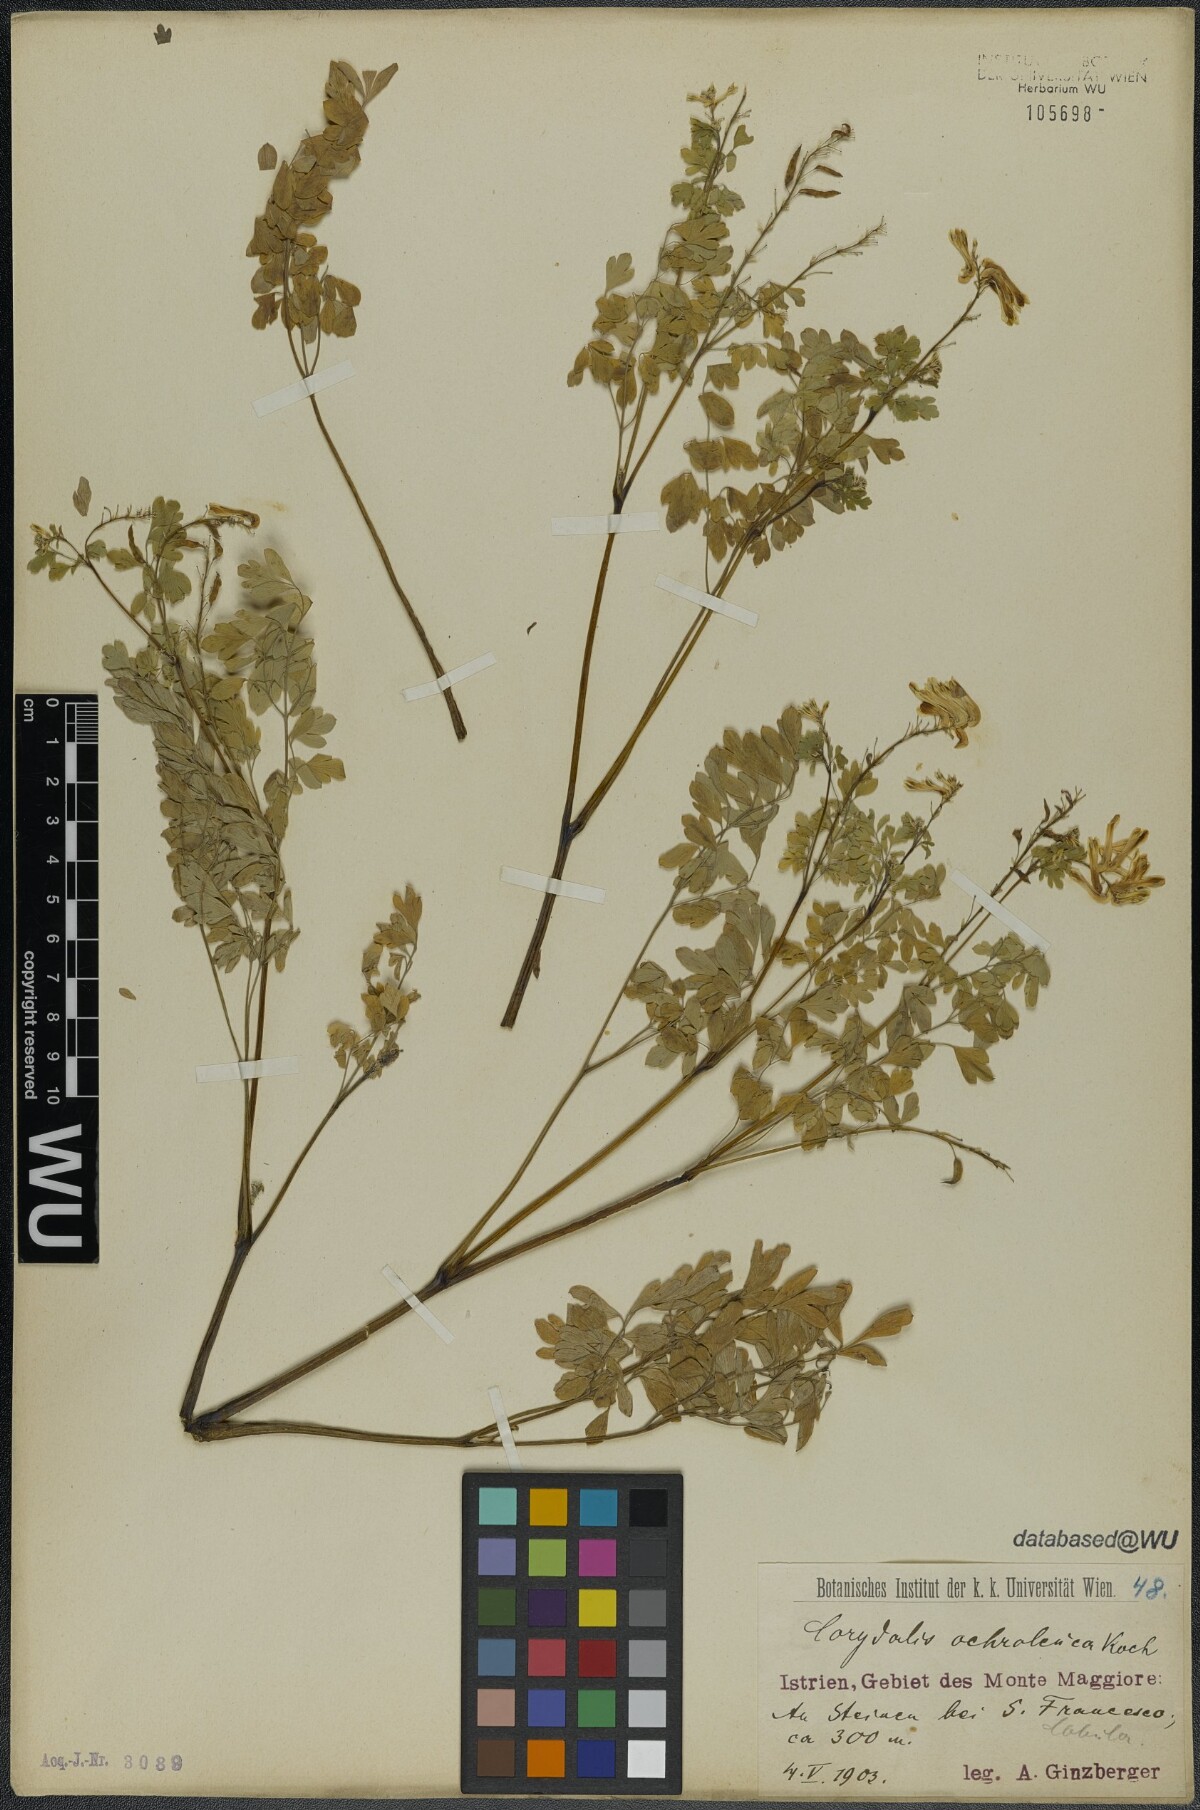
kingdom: Plantae
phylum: Tracheophyta
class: Magnoliopsida
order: Ranunculales
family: Papaveraceae
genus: Pseudofumaria
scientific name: Pseudofumaria alba
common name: Pale corydalis
